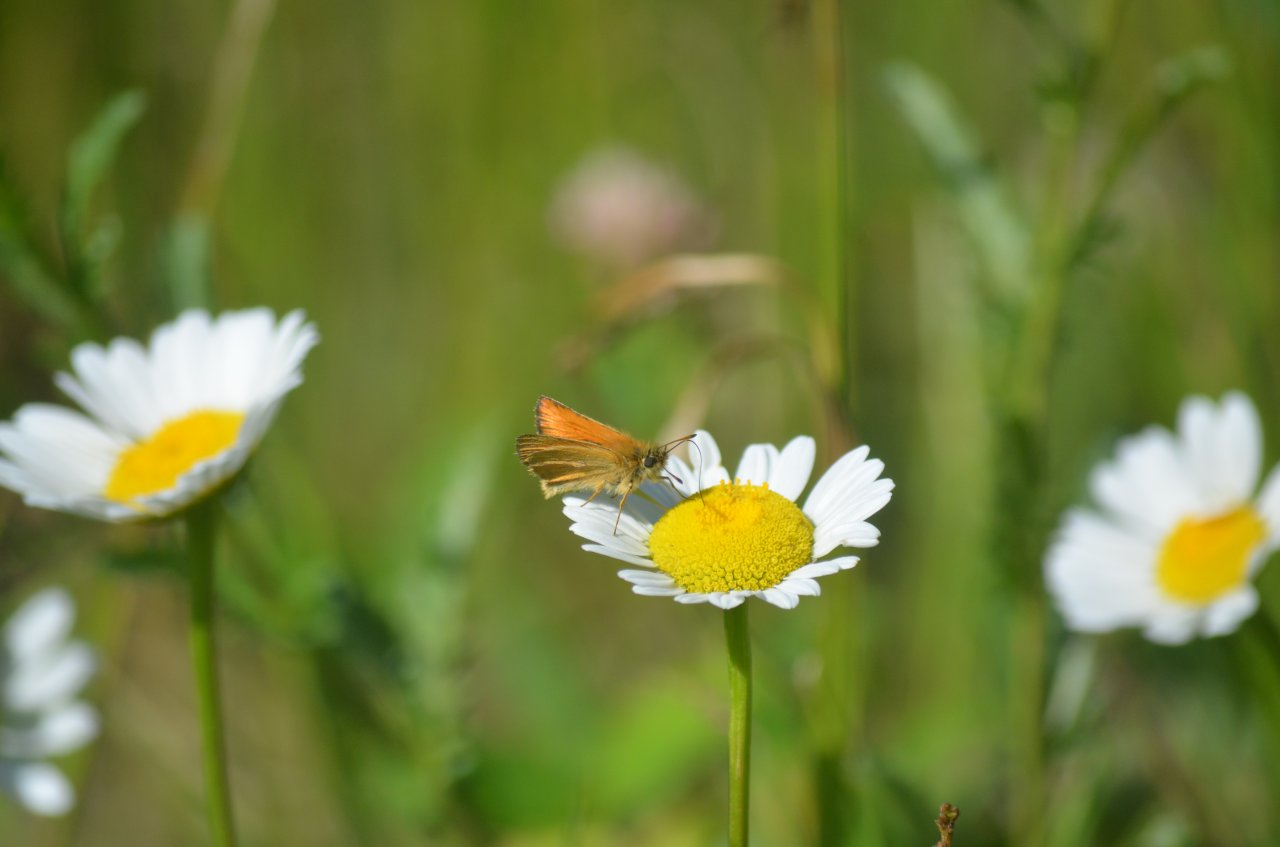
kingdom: Animalia
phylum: Arthropoda
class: Insecta
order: Lepidoptera
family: Hesperiidae
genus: Thymelicus
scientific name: Thymelicus lineola
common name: European Skipper
